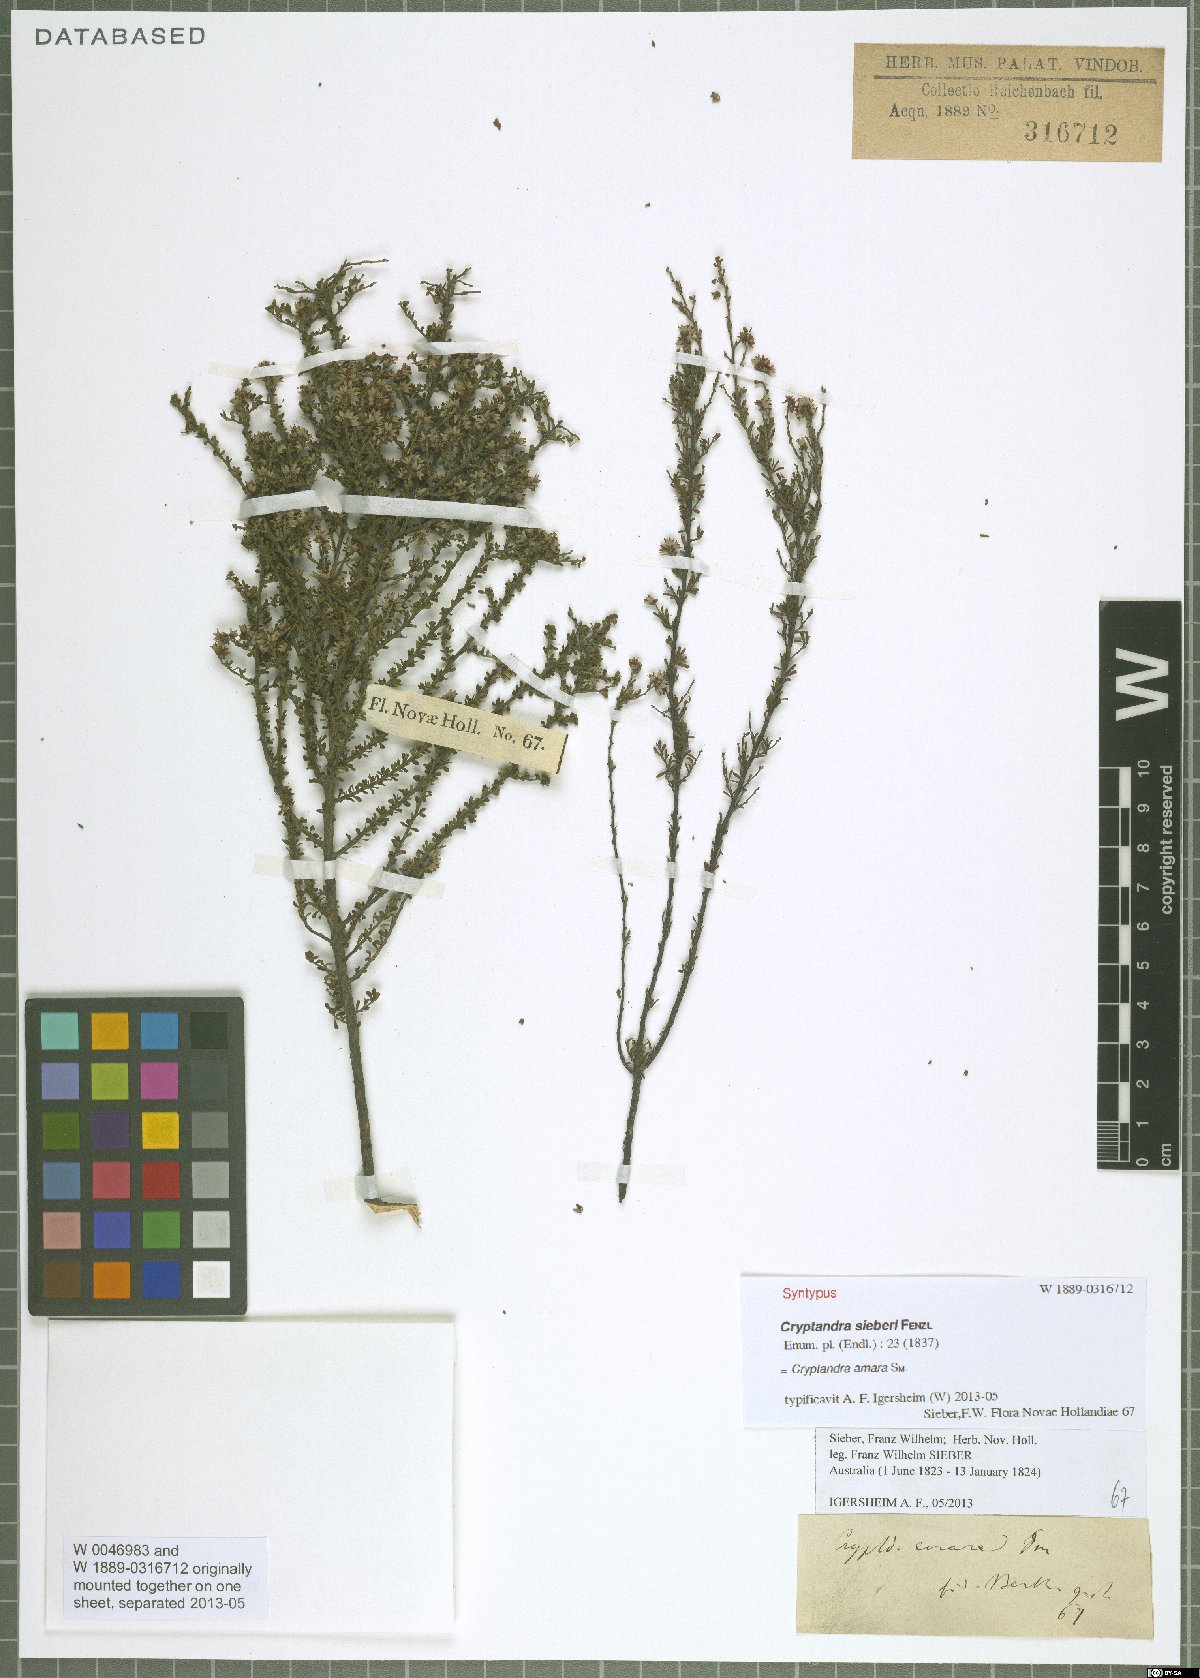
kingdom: Plantae
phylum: Tracheophyta
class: Magnoliopsida
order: Rosales
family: Rhamnaceae
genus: Cryptandra
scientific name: Cryptandra amara
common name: Bitter cryptandra
